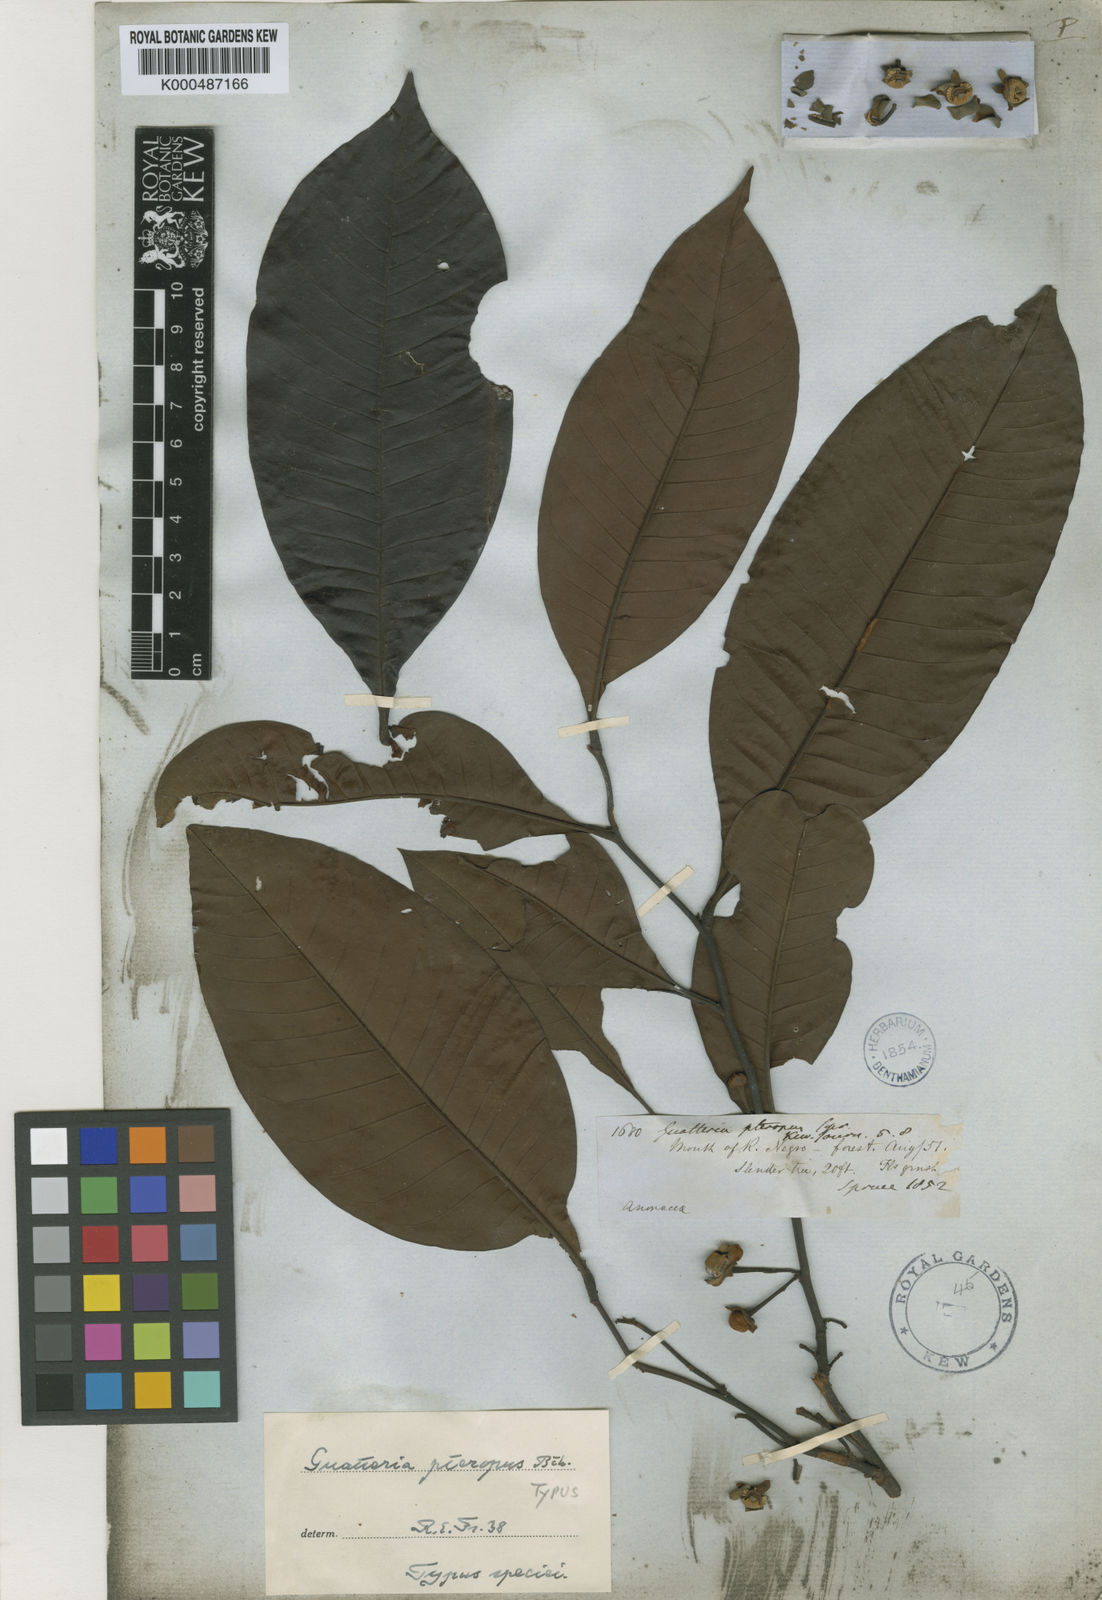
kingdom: Plantae
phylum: Tracheophyta
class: Magnoliopsida
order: Magnoliales
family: Annonaceae
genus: Guatteria
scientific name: Guatteria punctata
